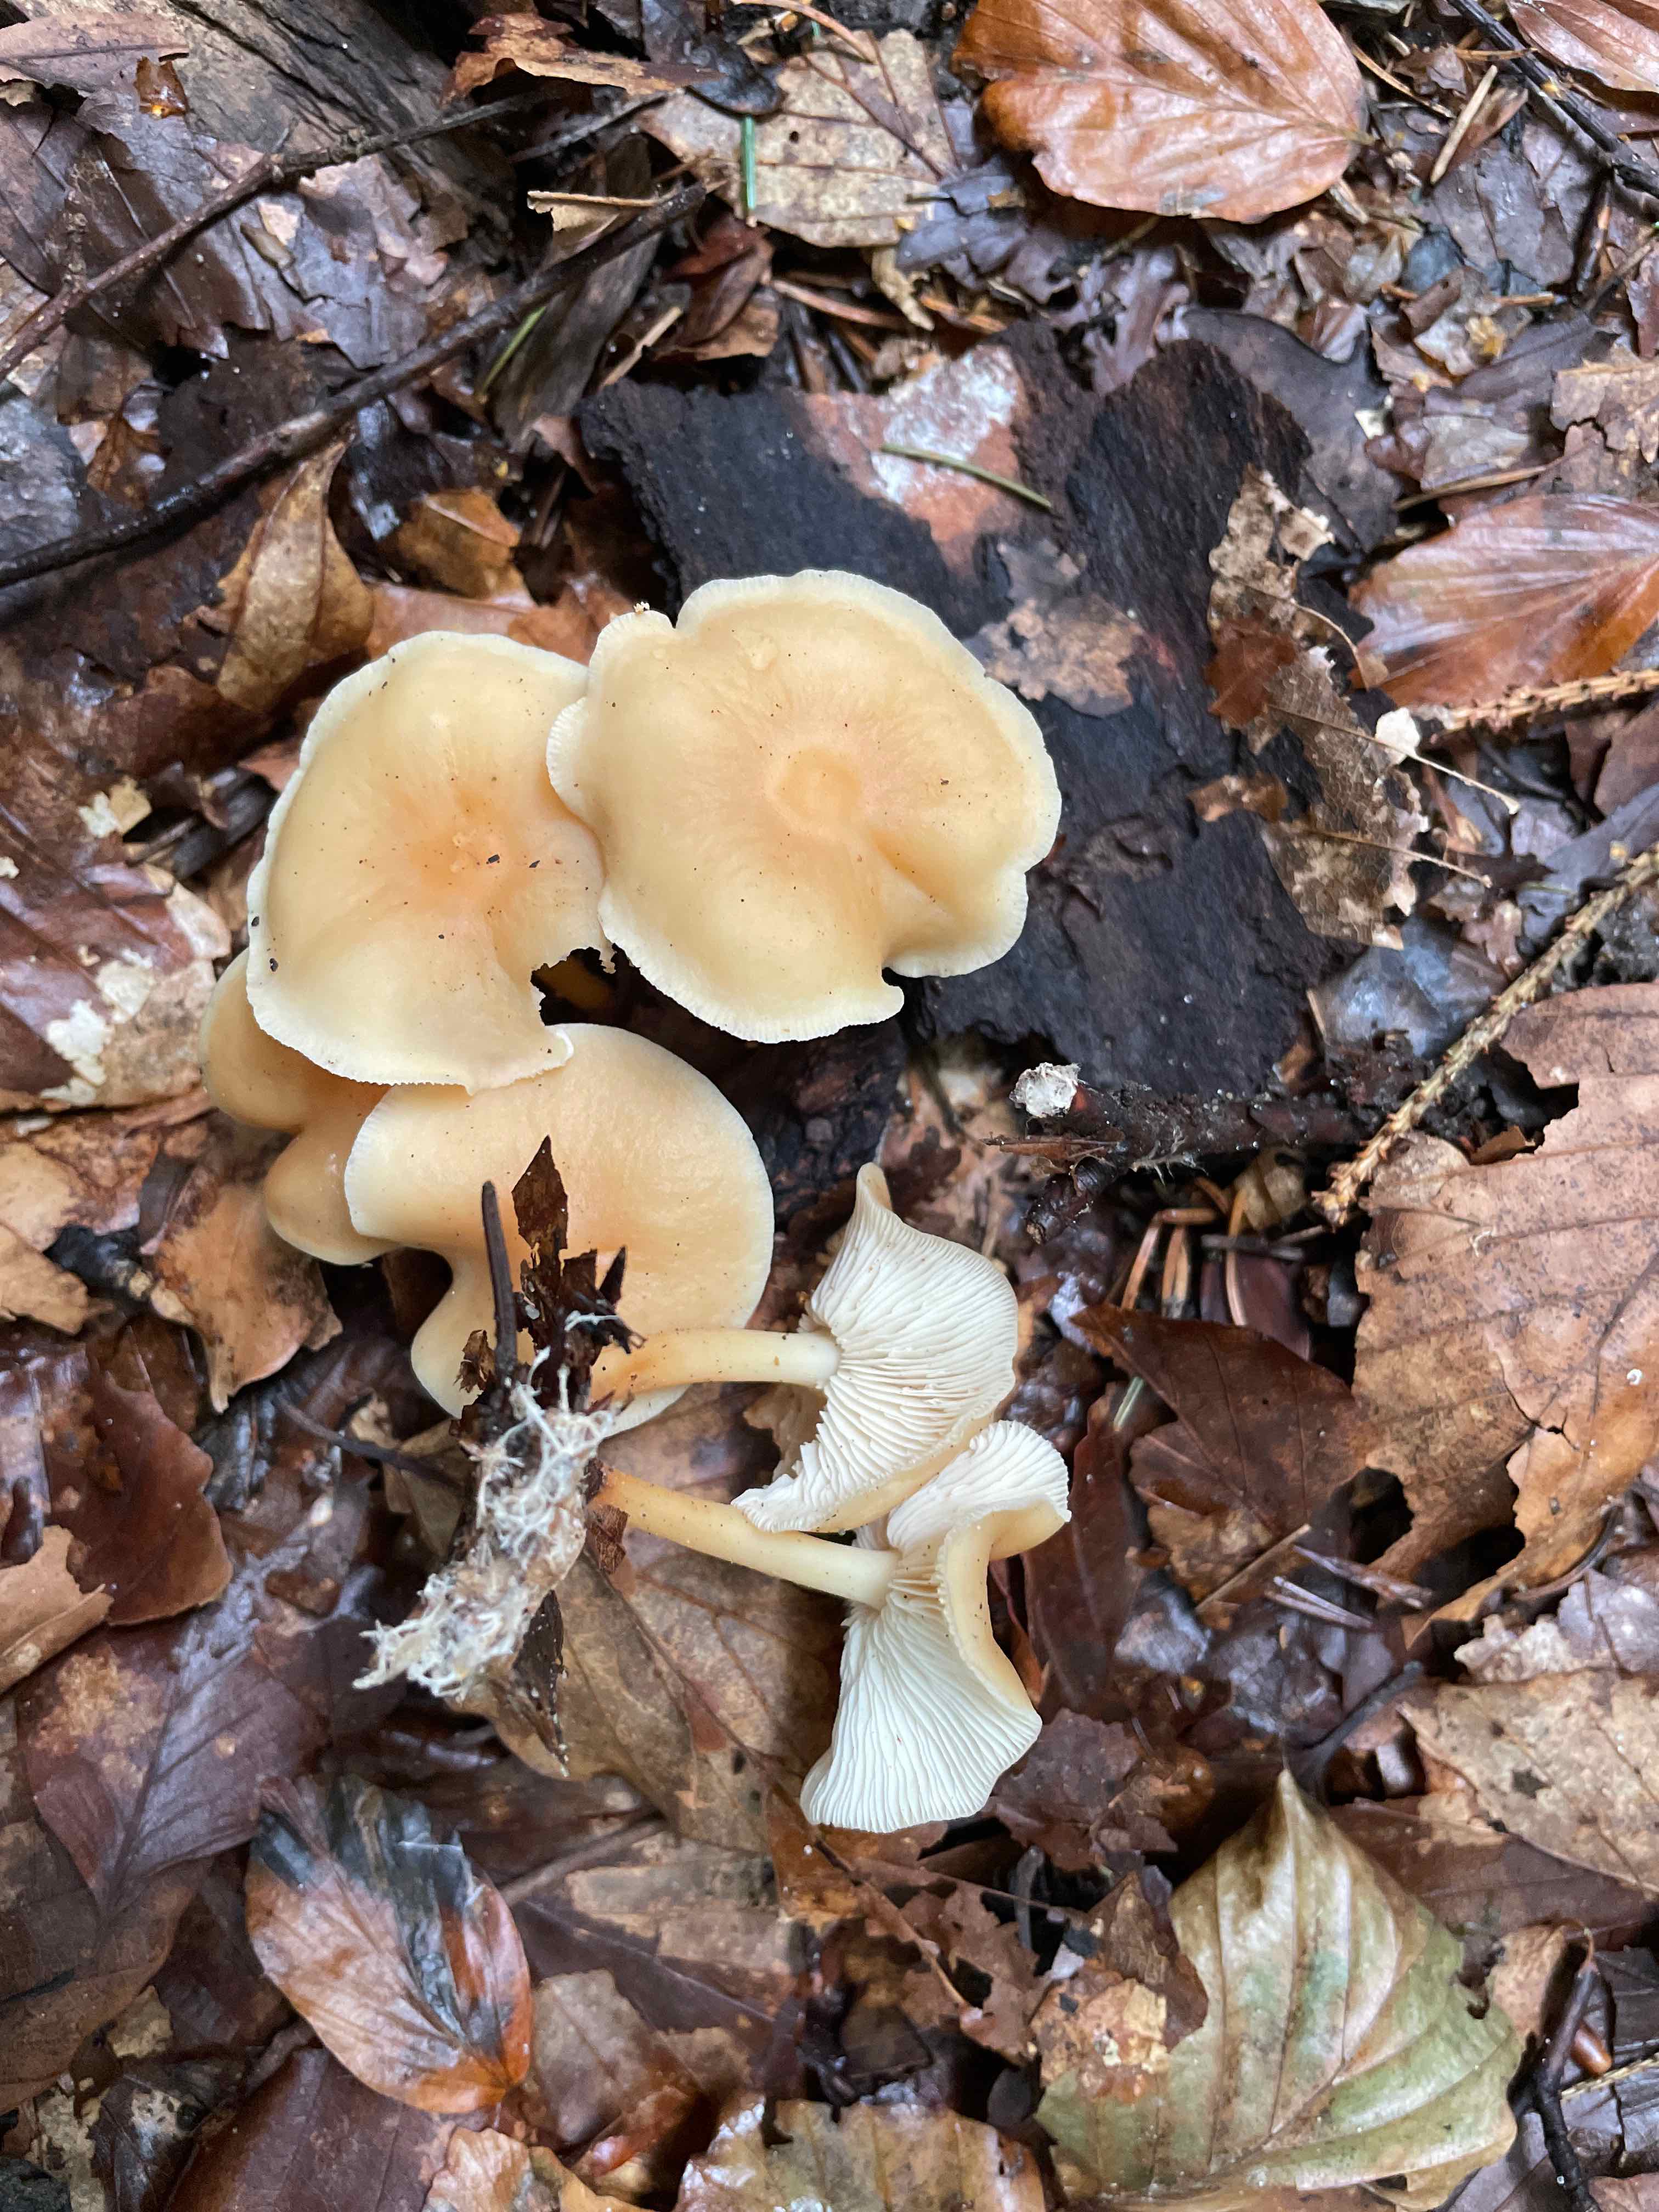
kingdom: Fungi
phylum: Basidiomycota
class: Agaricomycetes
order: Agaricales
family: Omphalotaceae
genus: Gymnopus
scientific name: Gymnopus dryophilus
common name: løv-fladhat
